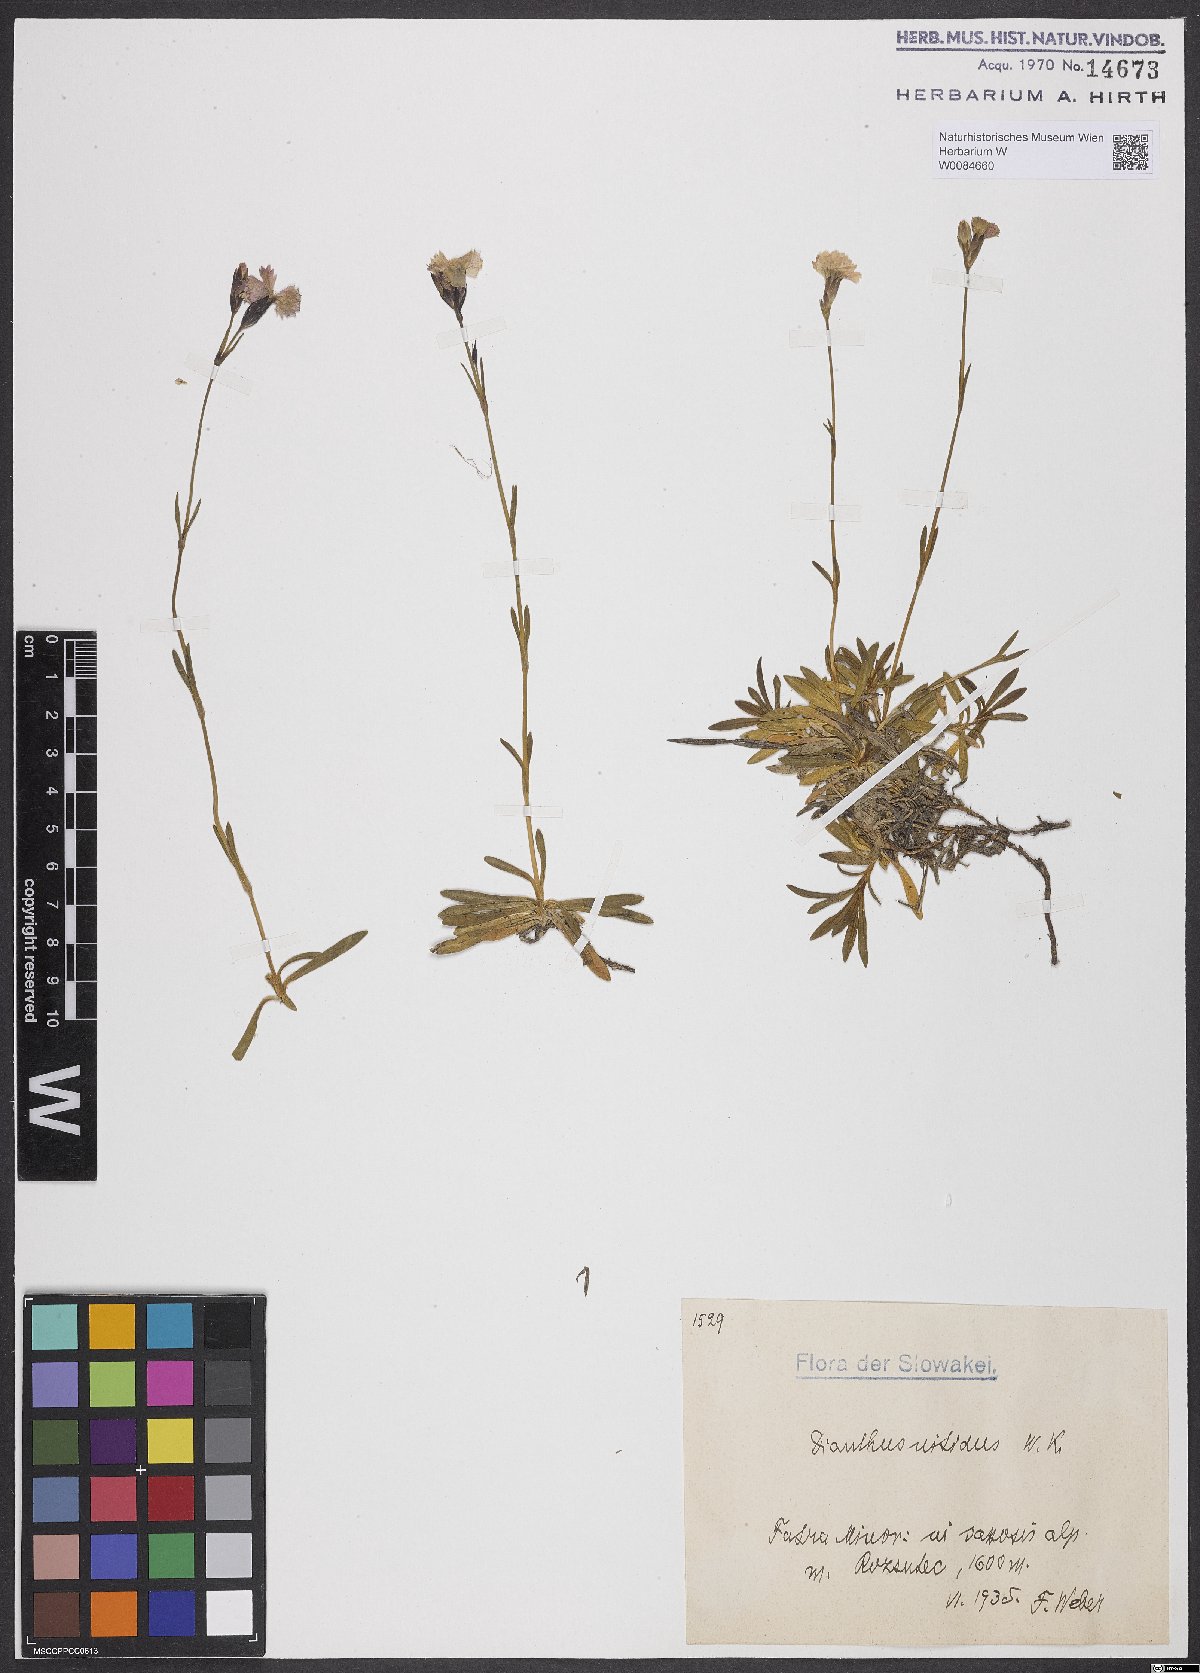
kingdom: Plantae
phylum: Tracheophyta
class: Magnoliopsida
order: Caryophyllales
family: Caryophyllaceae
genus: Dianthus
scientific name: Dianthus nitidus
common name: Carpathian glossy pink
